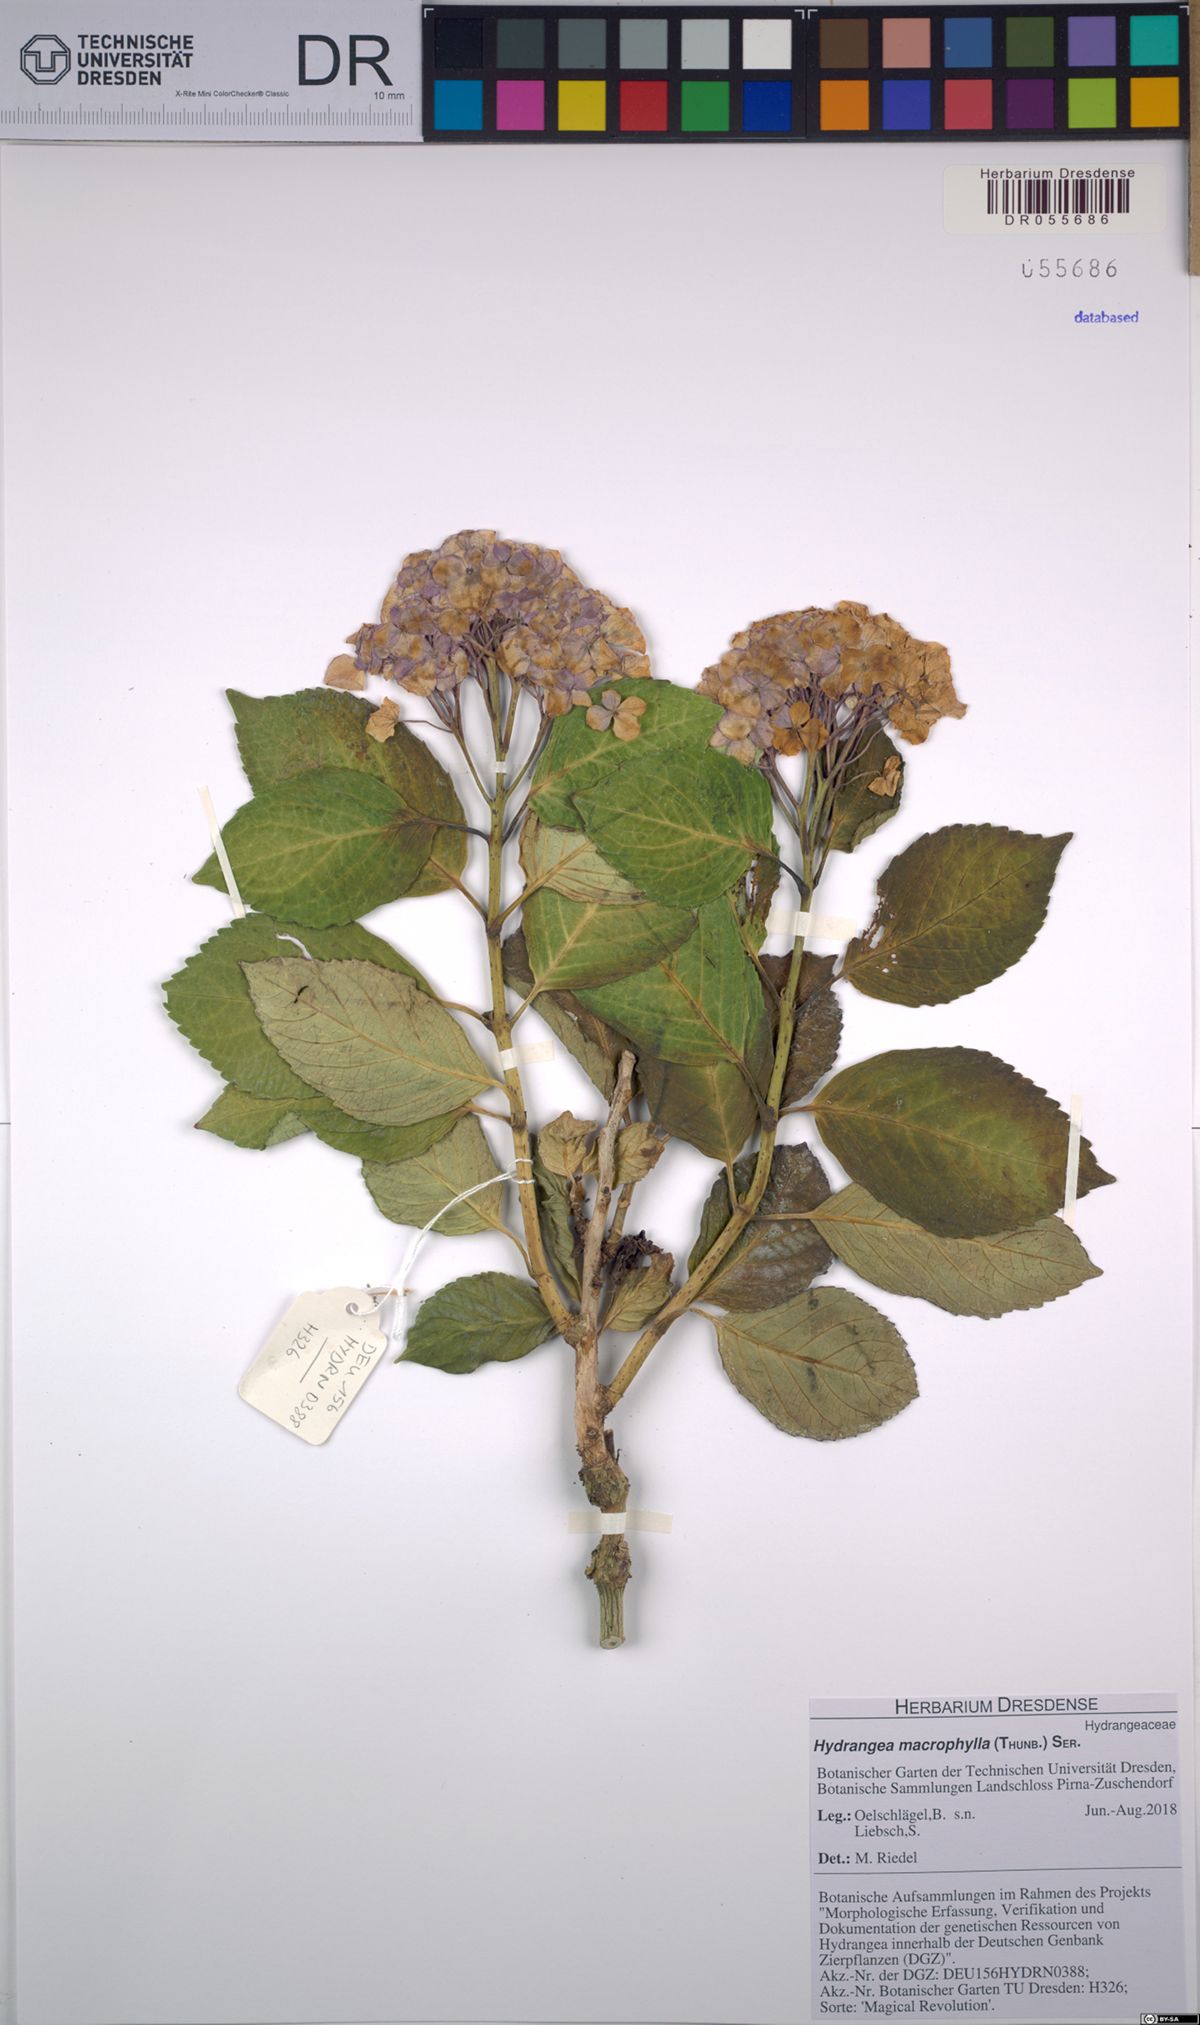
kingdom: Plantae
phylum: Tracheophyta
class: Magnoliopsida
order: Cornales
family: Hydrangeaceae
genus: Hydrangea
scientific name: Hydrangea macrophylla
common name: Hydrangea
